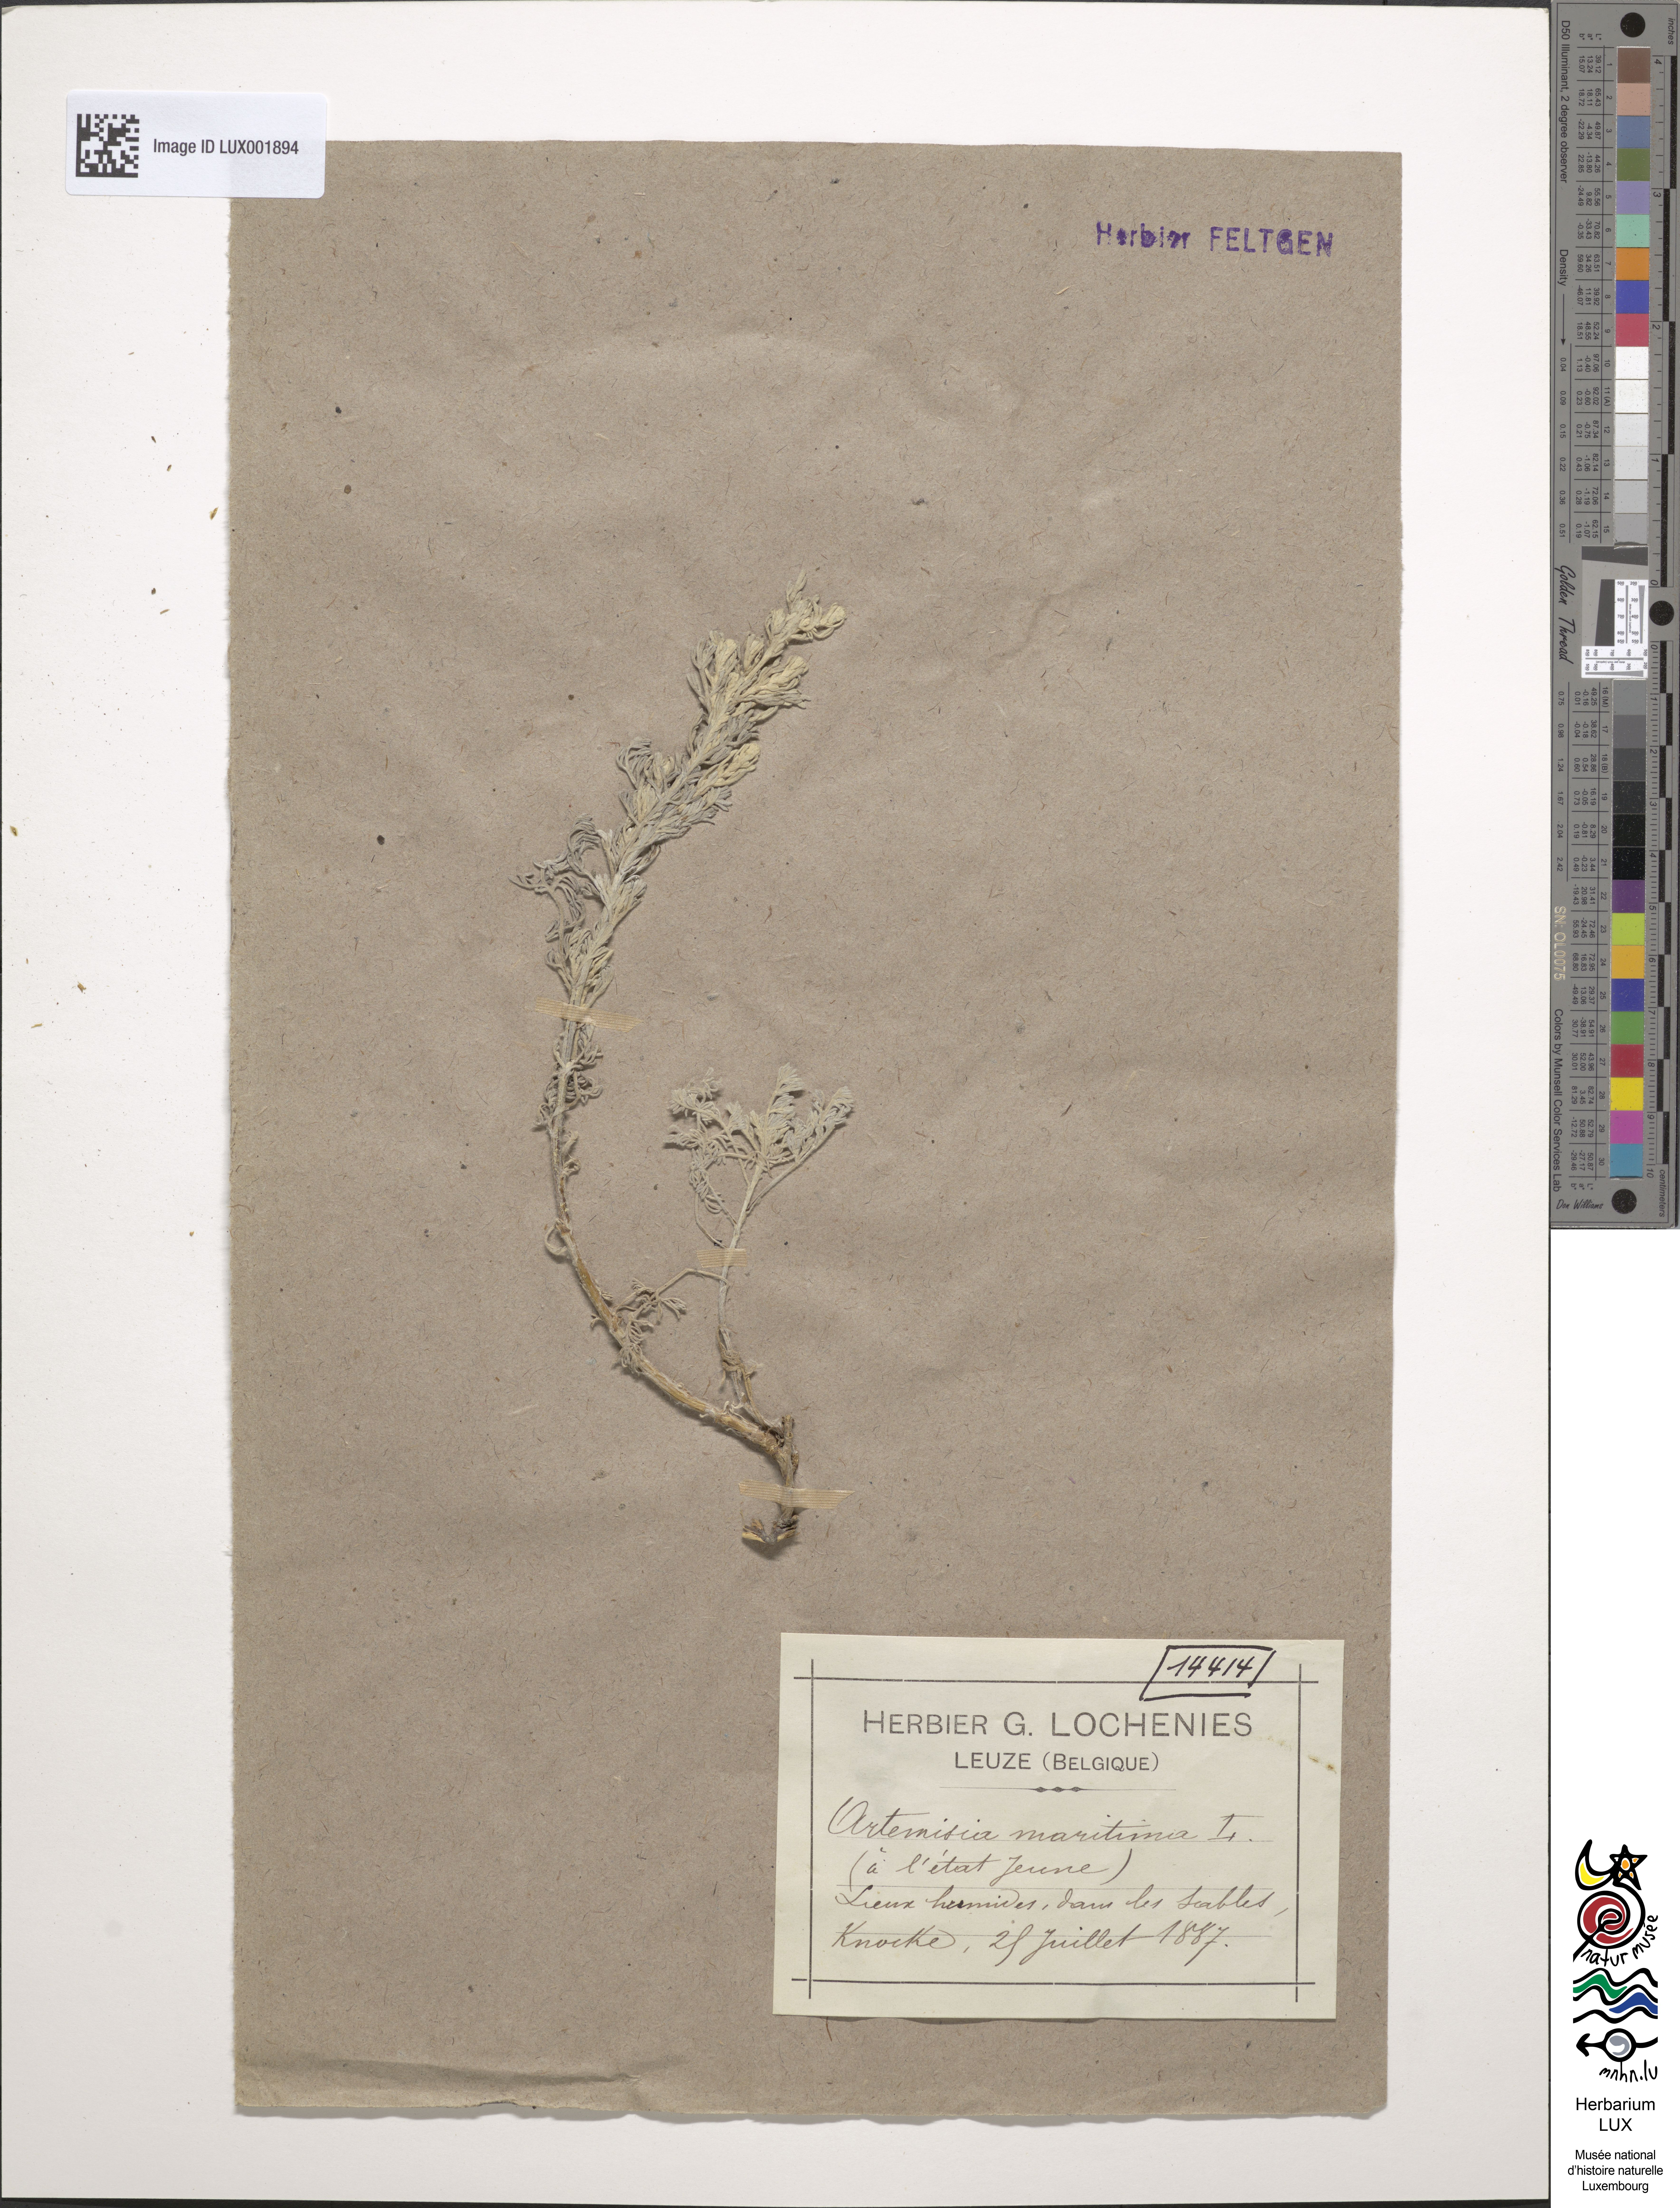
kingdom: Plantae
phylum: Tracheophyta
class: Magnoliopsida
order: Asterales
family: Asteraceae
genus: Artemisia
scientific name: Artemisia maritima
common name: Wormseed
